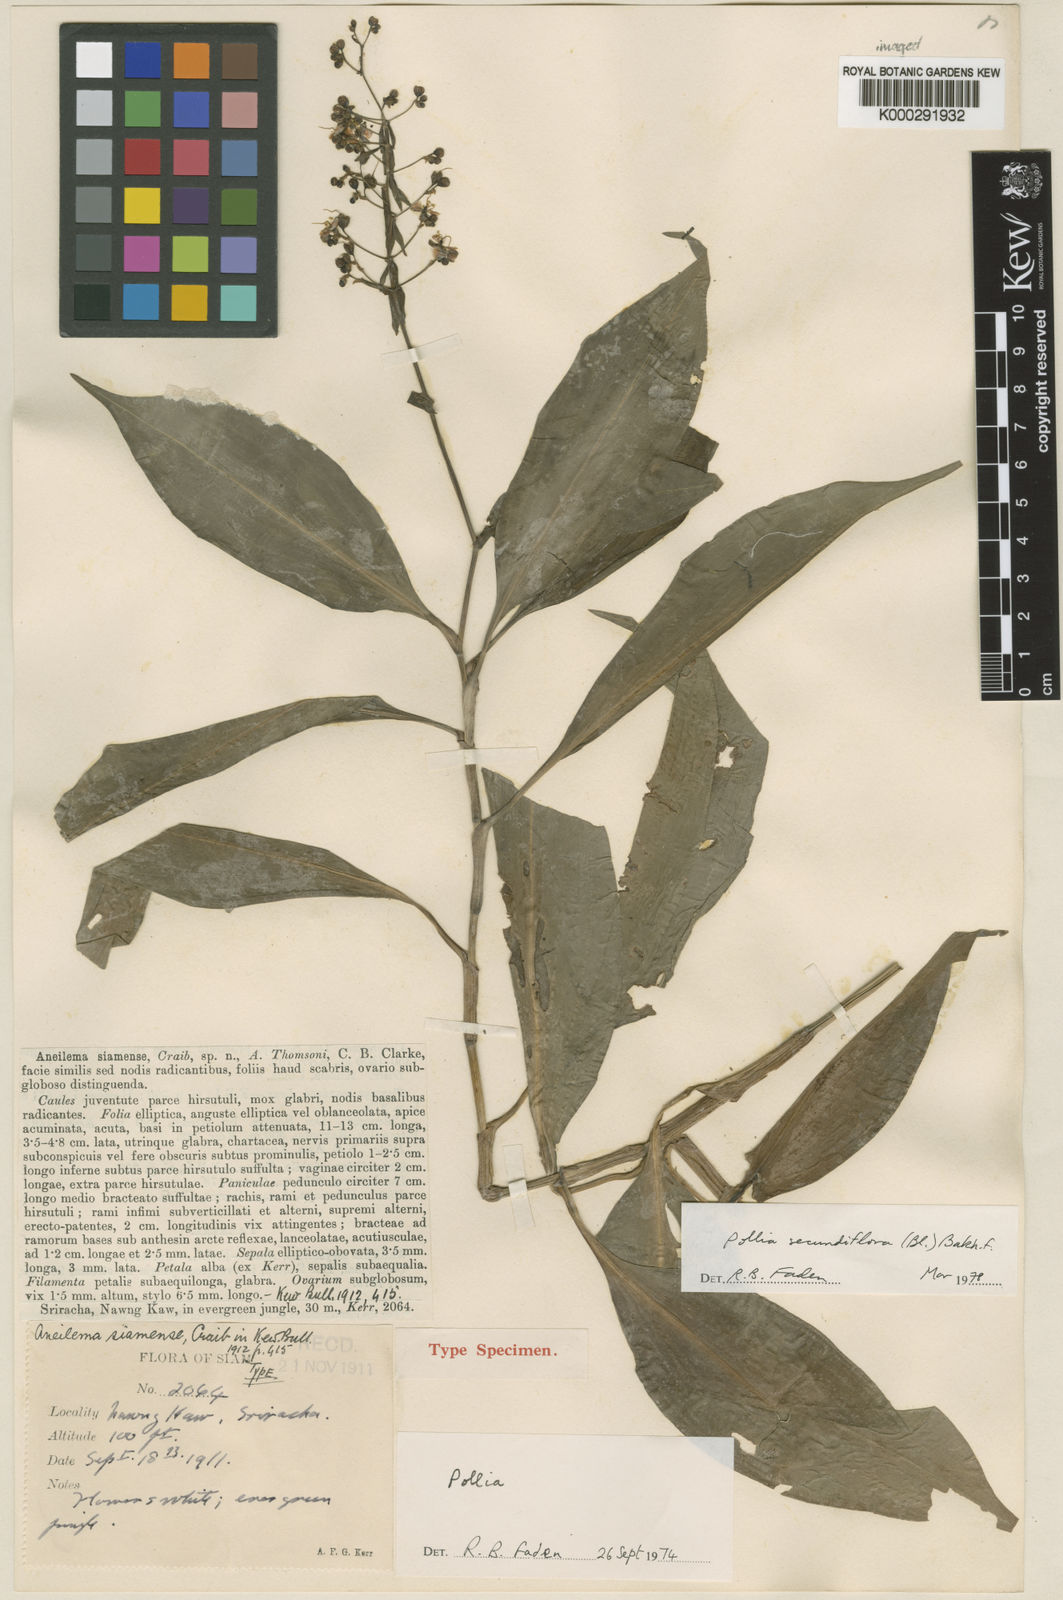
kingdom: Plantae
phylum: Tracheophyta
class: Liliopsida
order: Commelinales
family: Commelinaceae
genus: Pollia
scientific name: Pollia secundiflora
